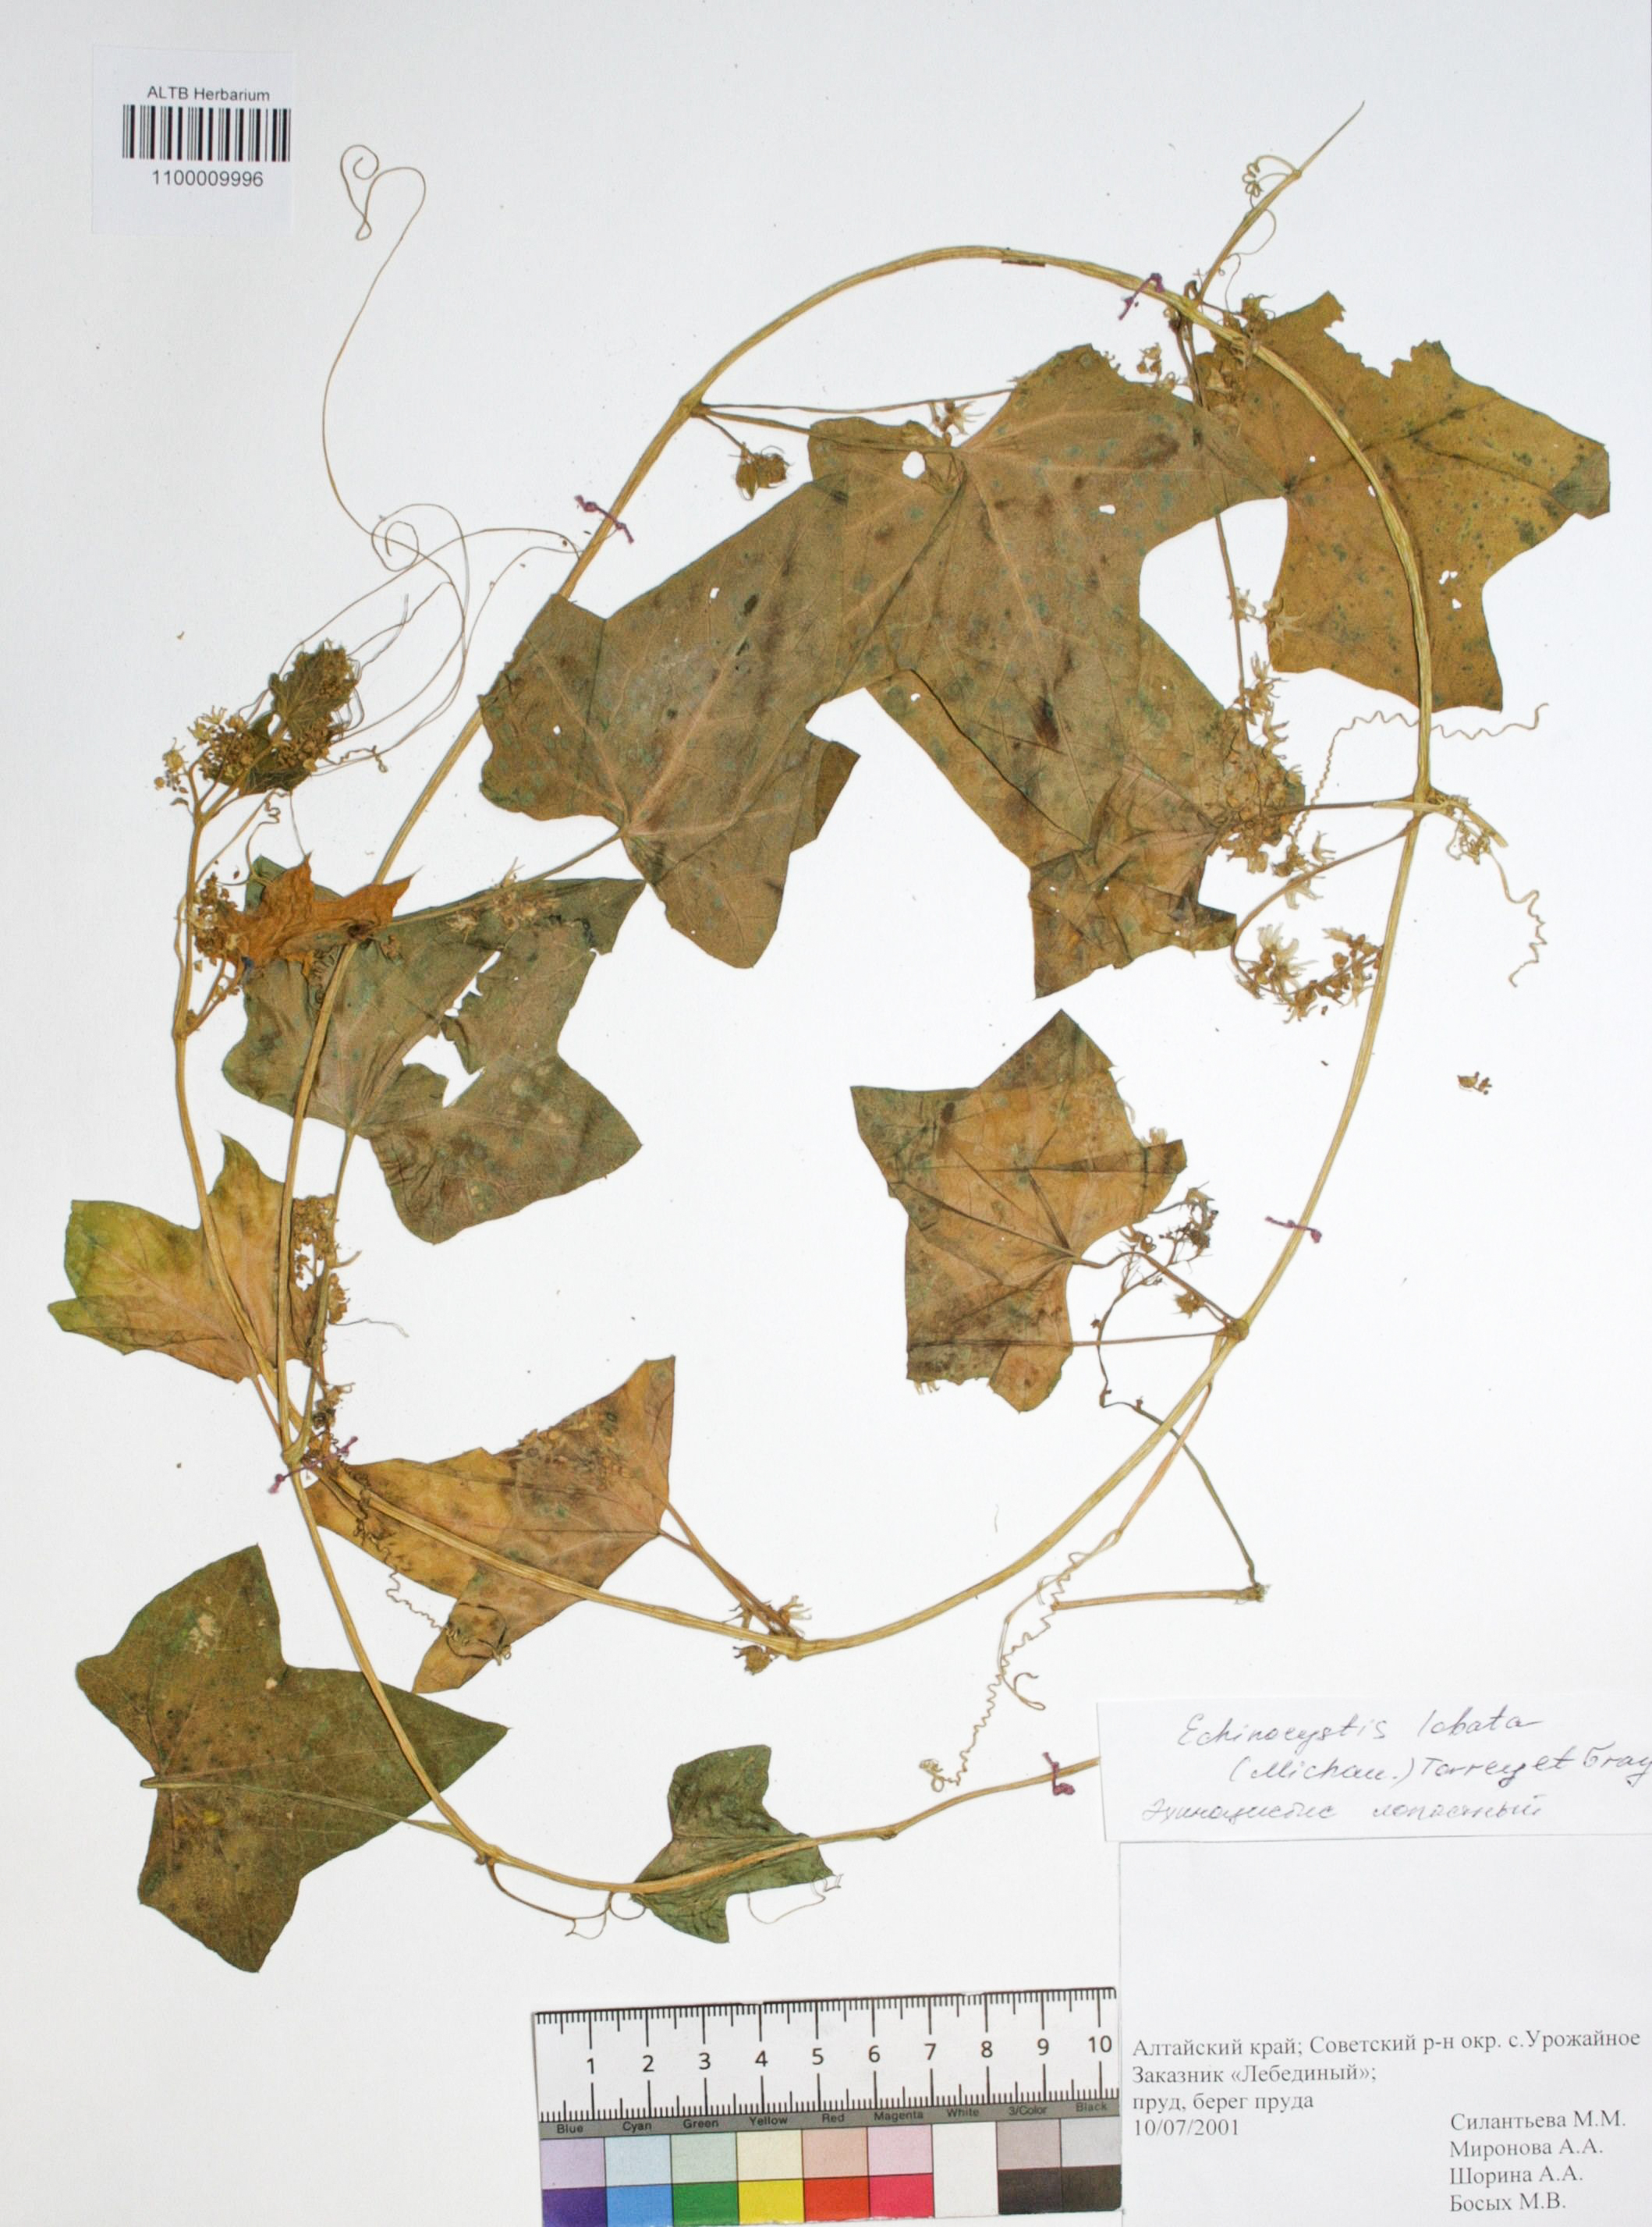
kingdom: Plantae
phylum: Tracheophyta
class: Magnoliopsida
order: Cucurbitales
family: Cucurbitaceae
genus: Echinocystis
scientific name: Echinocystis lobata
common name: Wild cucumber
